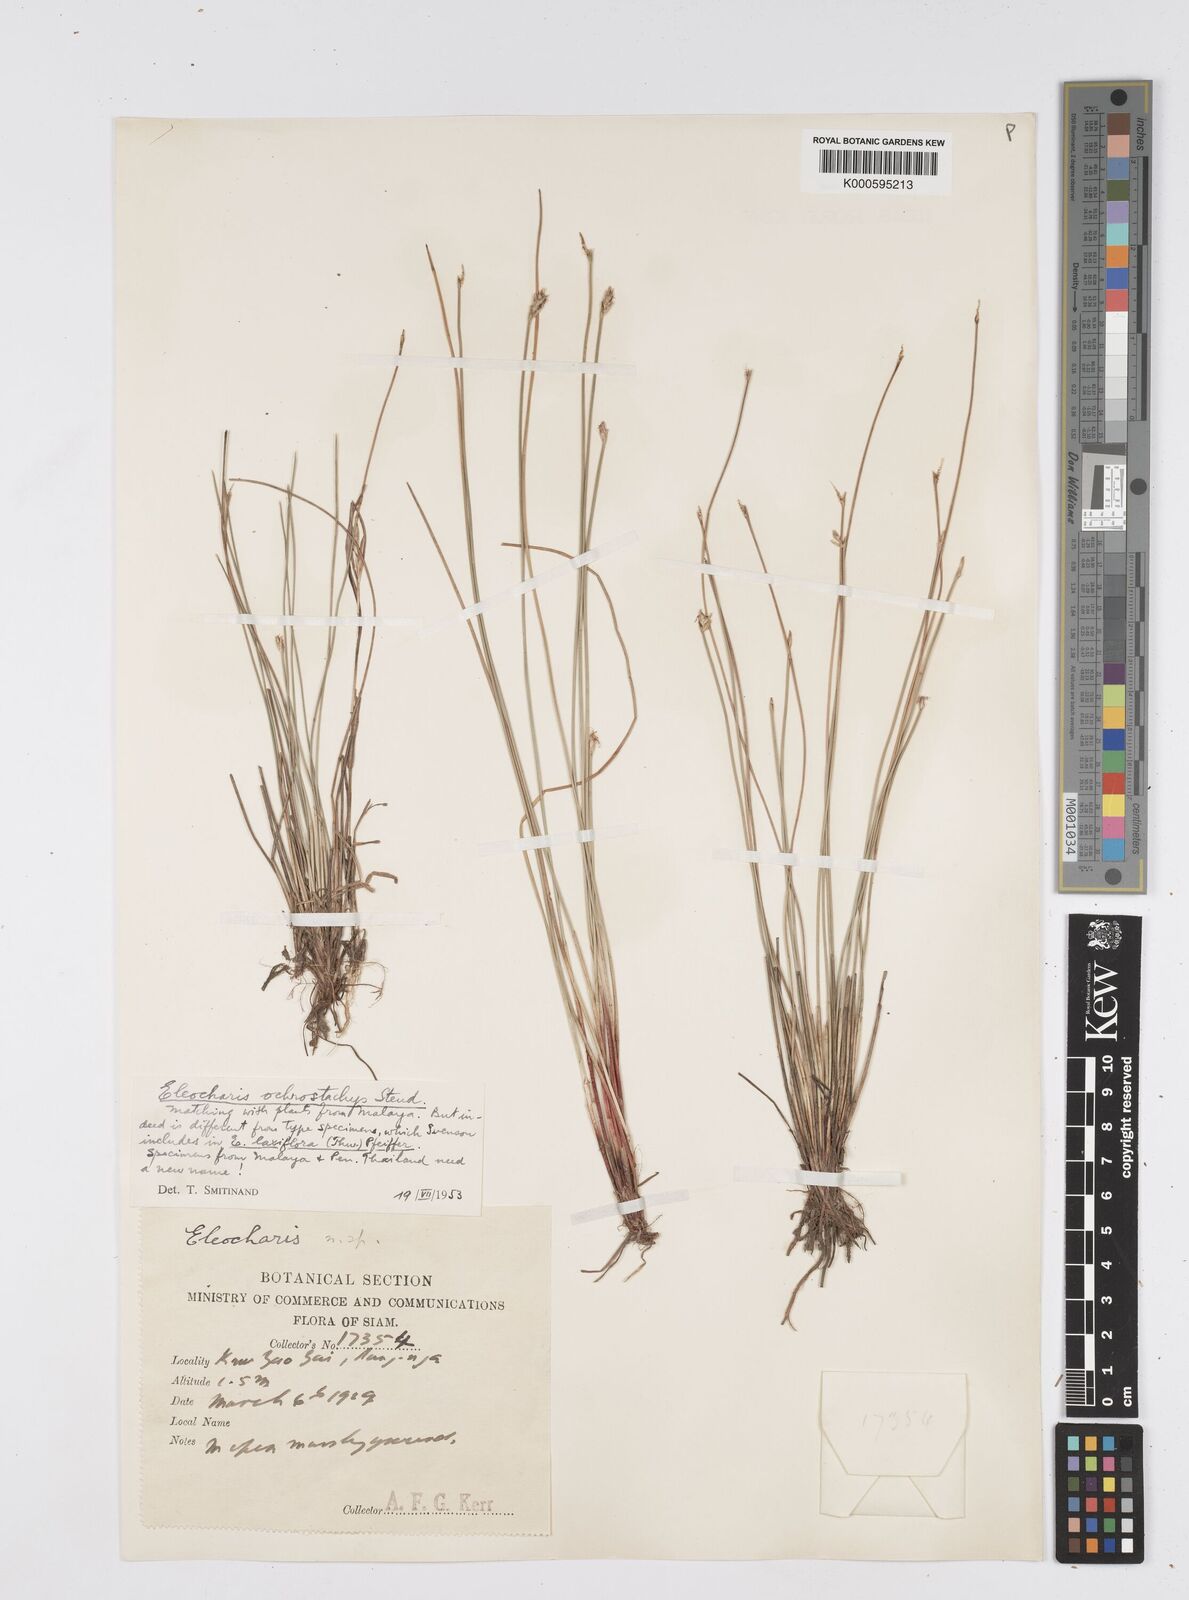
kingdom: Plantae
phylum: Tracheophyta
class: Liliopsida
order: Poales
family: Cyperaceae
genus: Eleocharis
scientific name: Eleocharis ochrostachys
